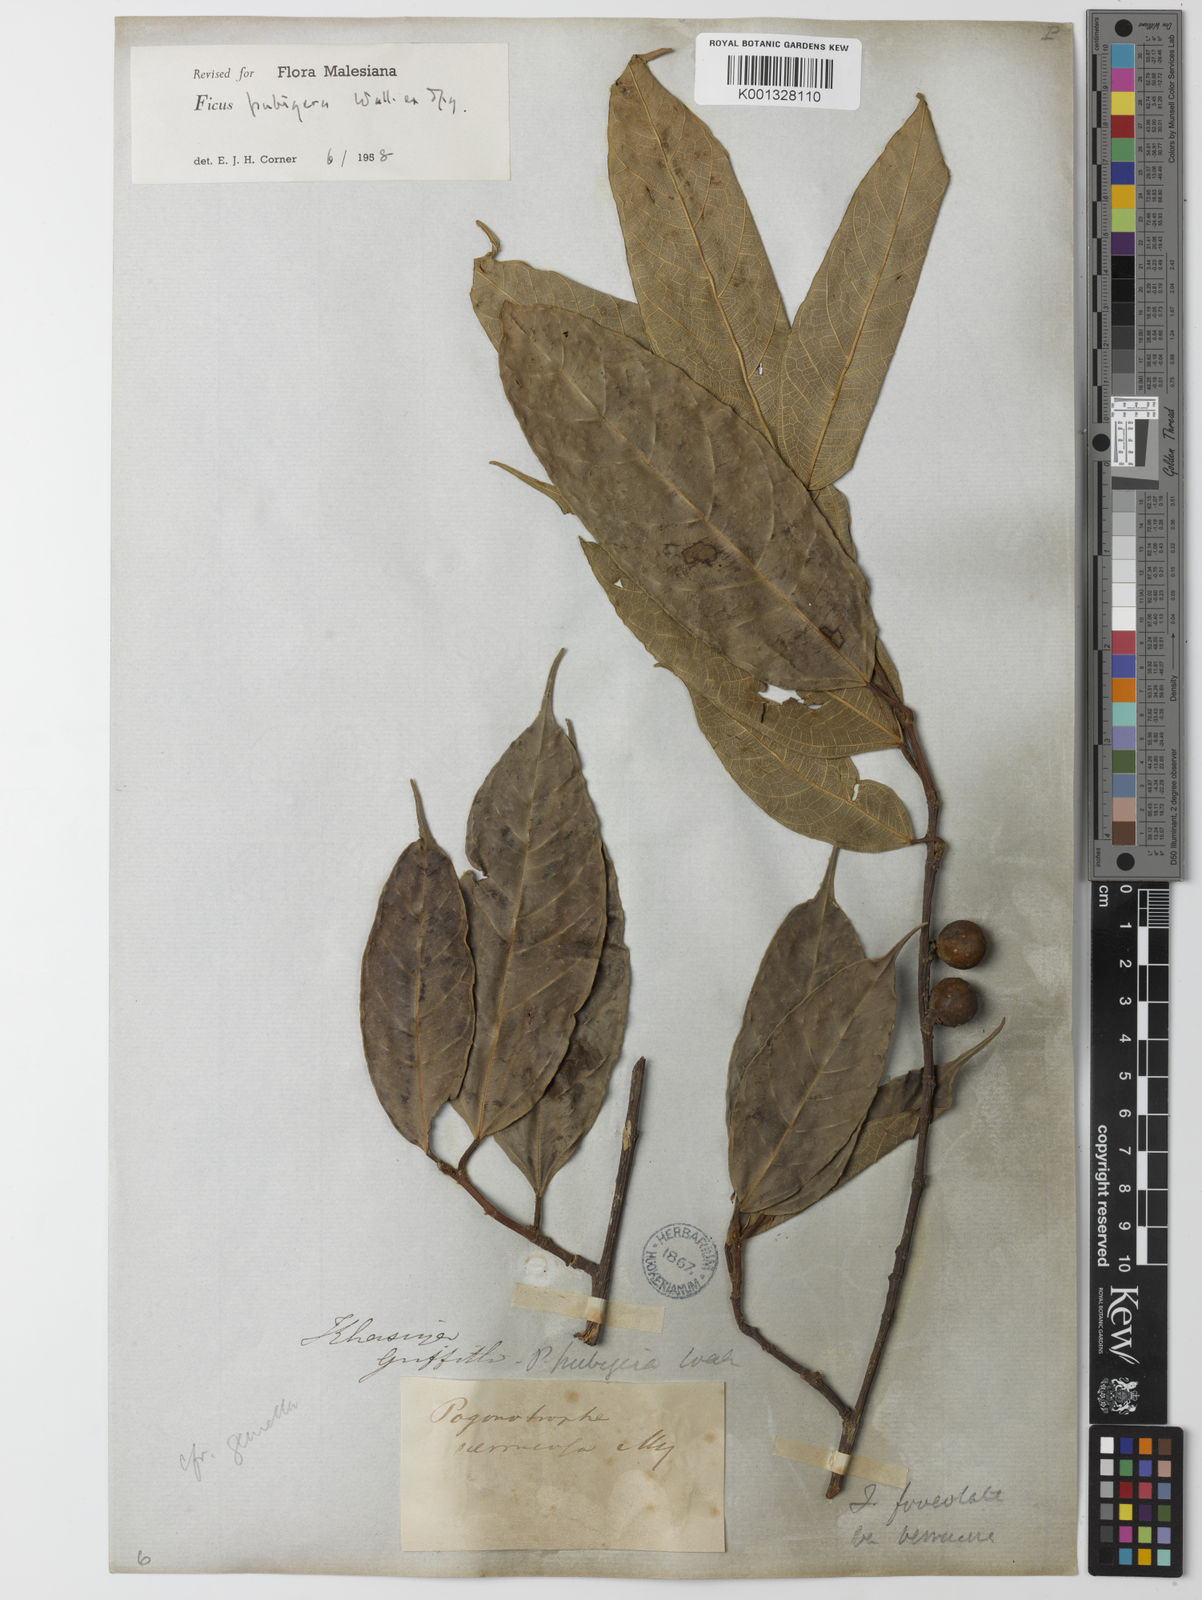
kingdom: Plantae
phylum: Tracheophyta
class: Magnoliopsida
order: Rosales
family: Moraceae
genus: Ficus
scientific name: Ficus
